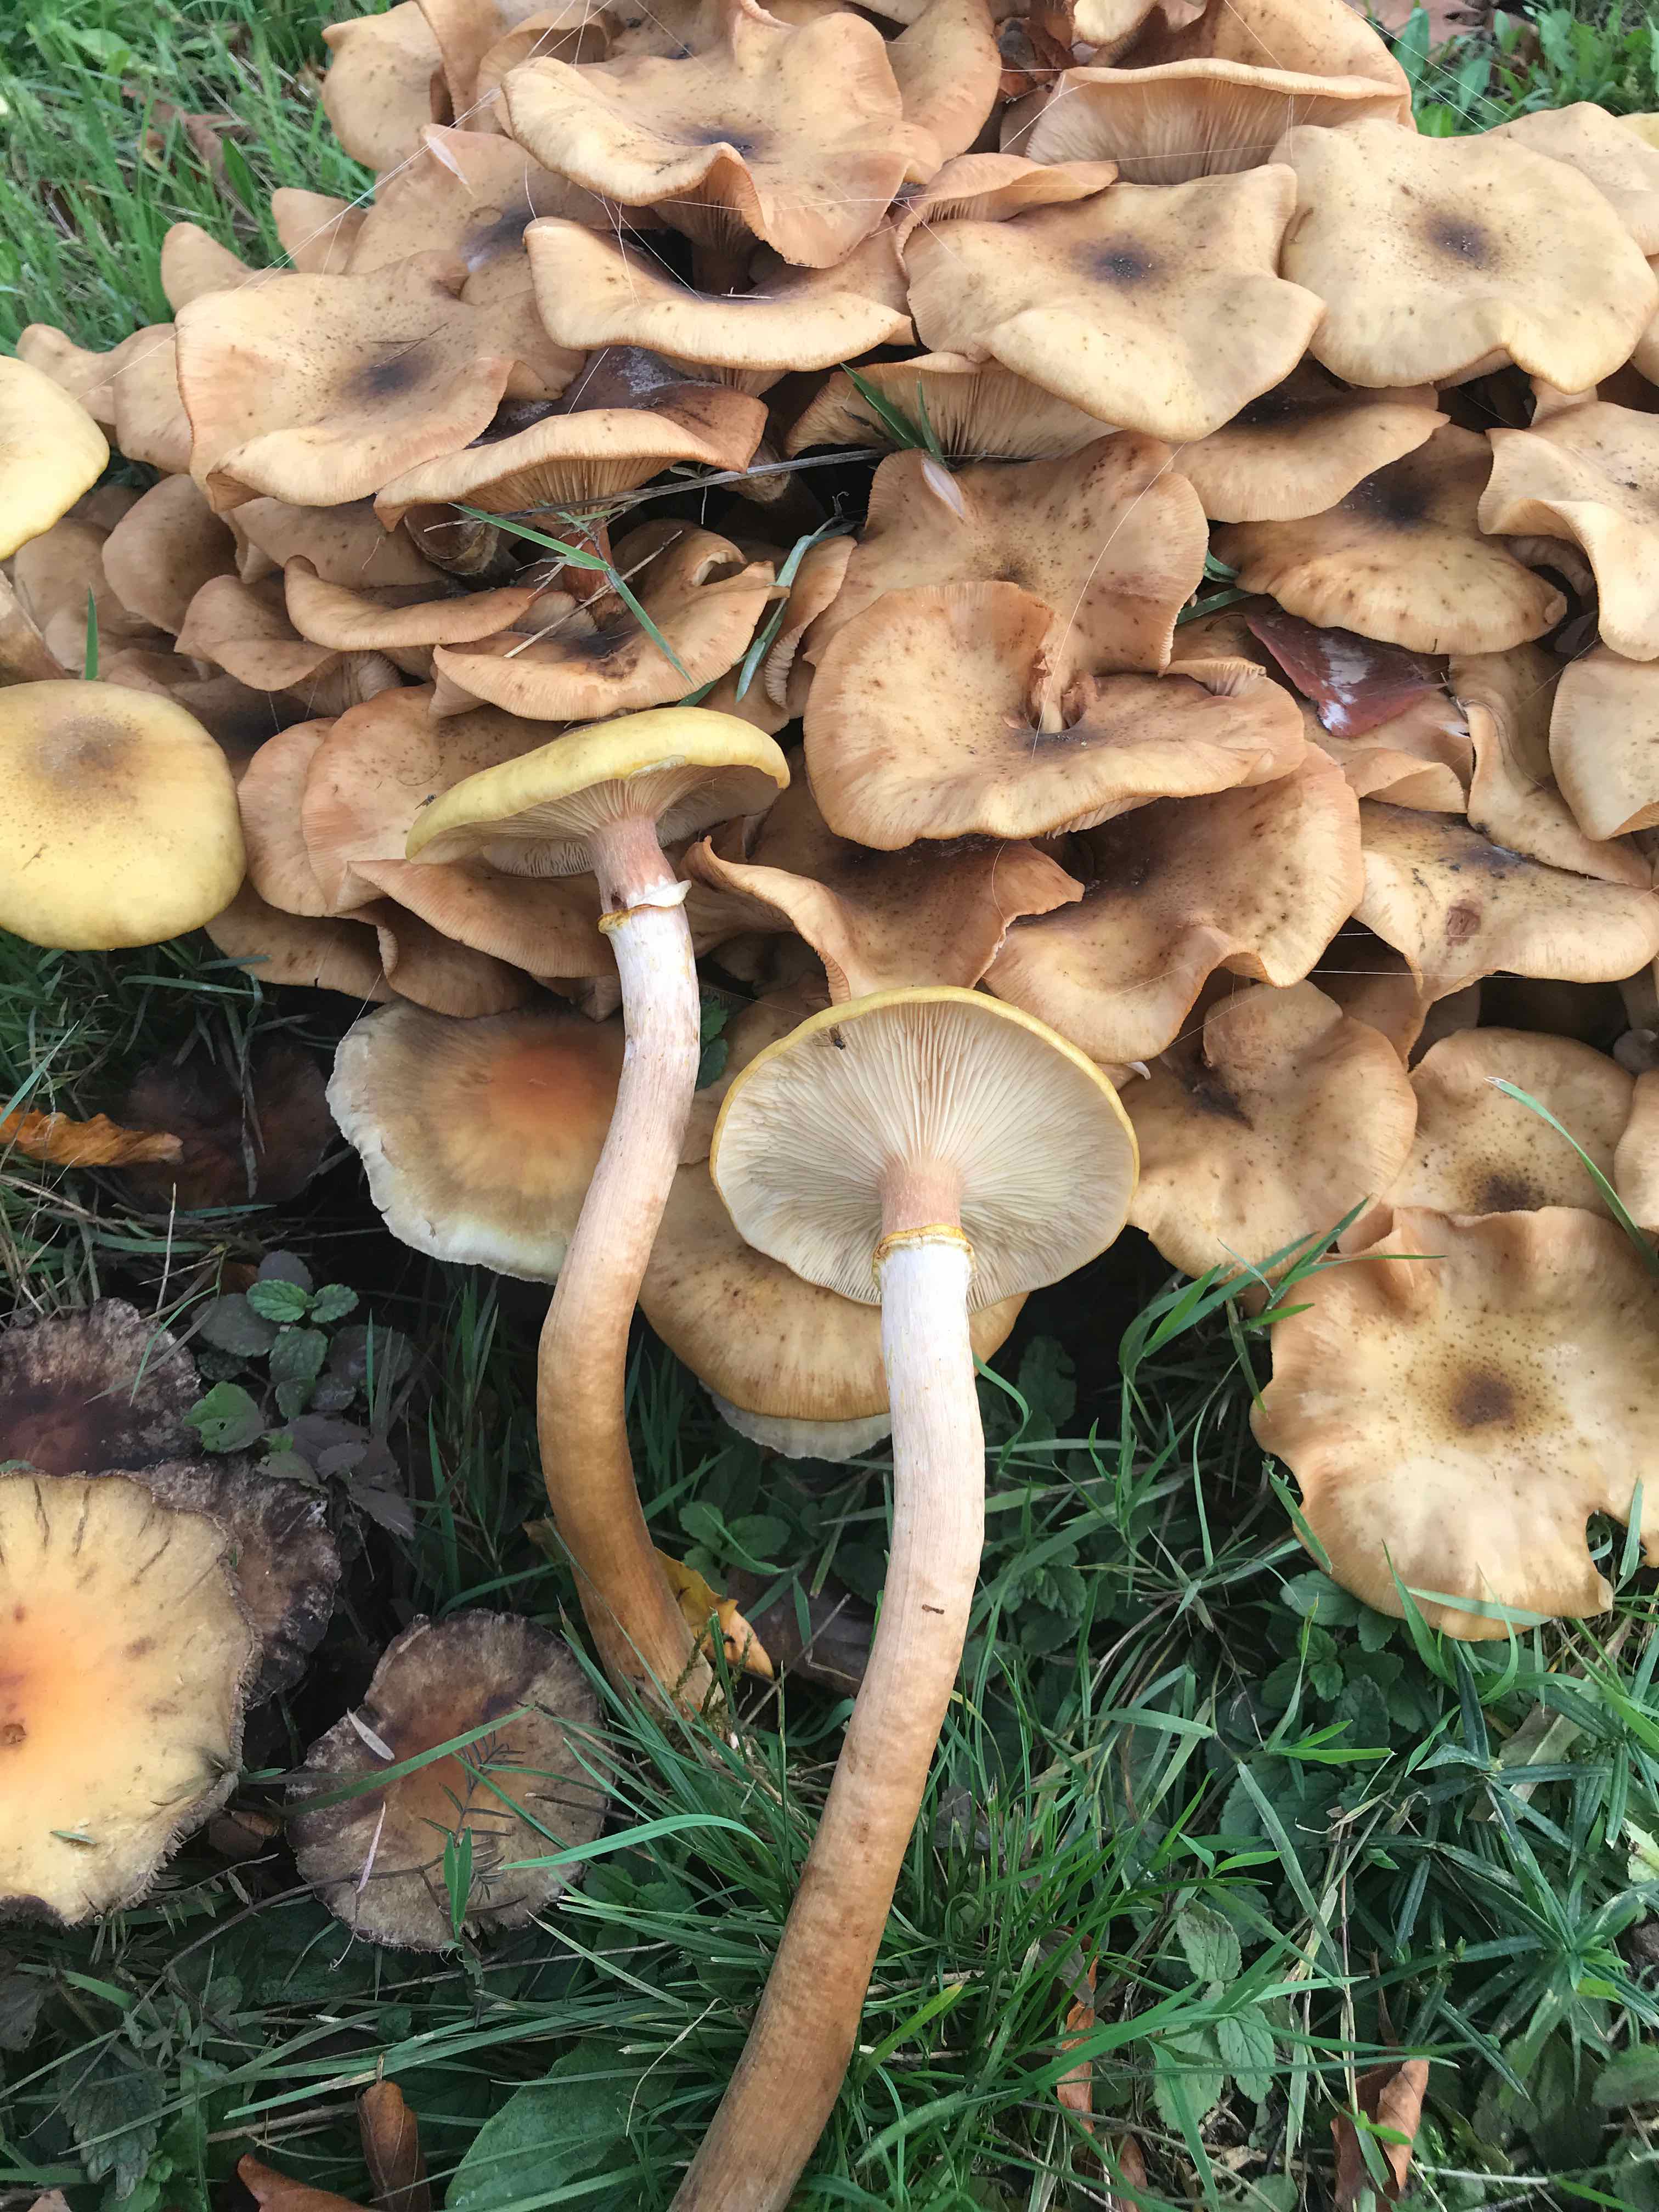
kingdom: Fungi
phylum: Basidiomycota
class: Agaricomycetes
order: Agaricales
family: Physalacriaceae
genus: Armillaria
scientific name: Armillaria mellea
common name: ægte honningsvamp
